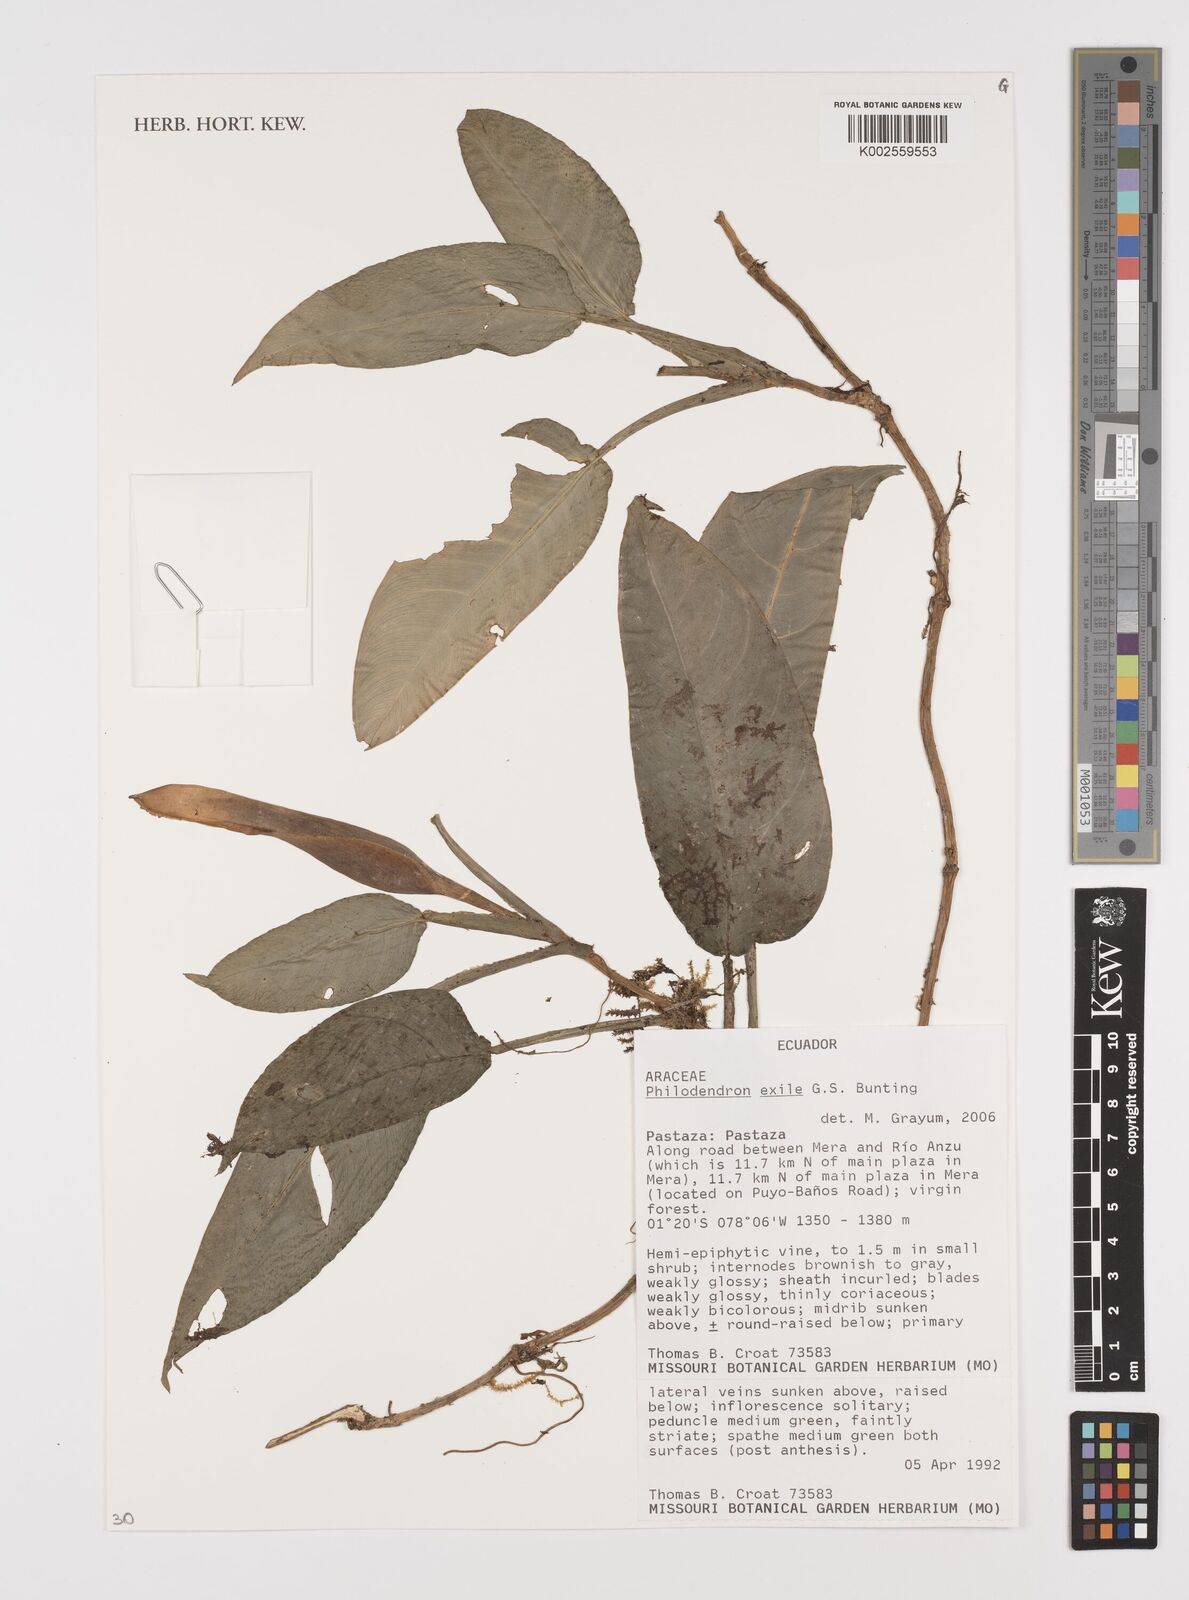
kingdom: Plantae
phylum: Tracheophyta
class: Liliopsida
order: Alismatales
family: Araceae
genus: Philodendron
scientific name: Philodendron exile
